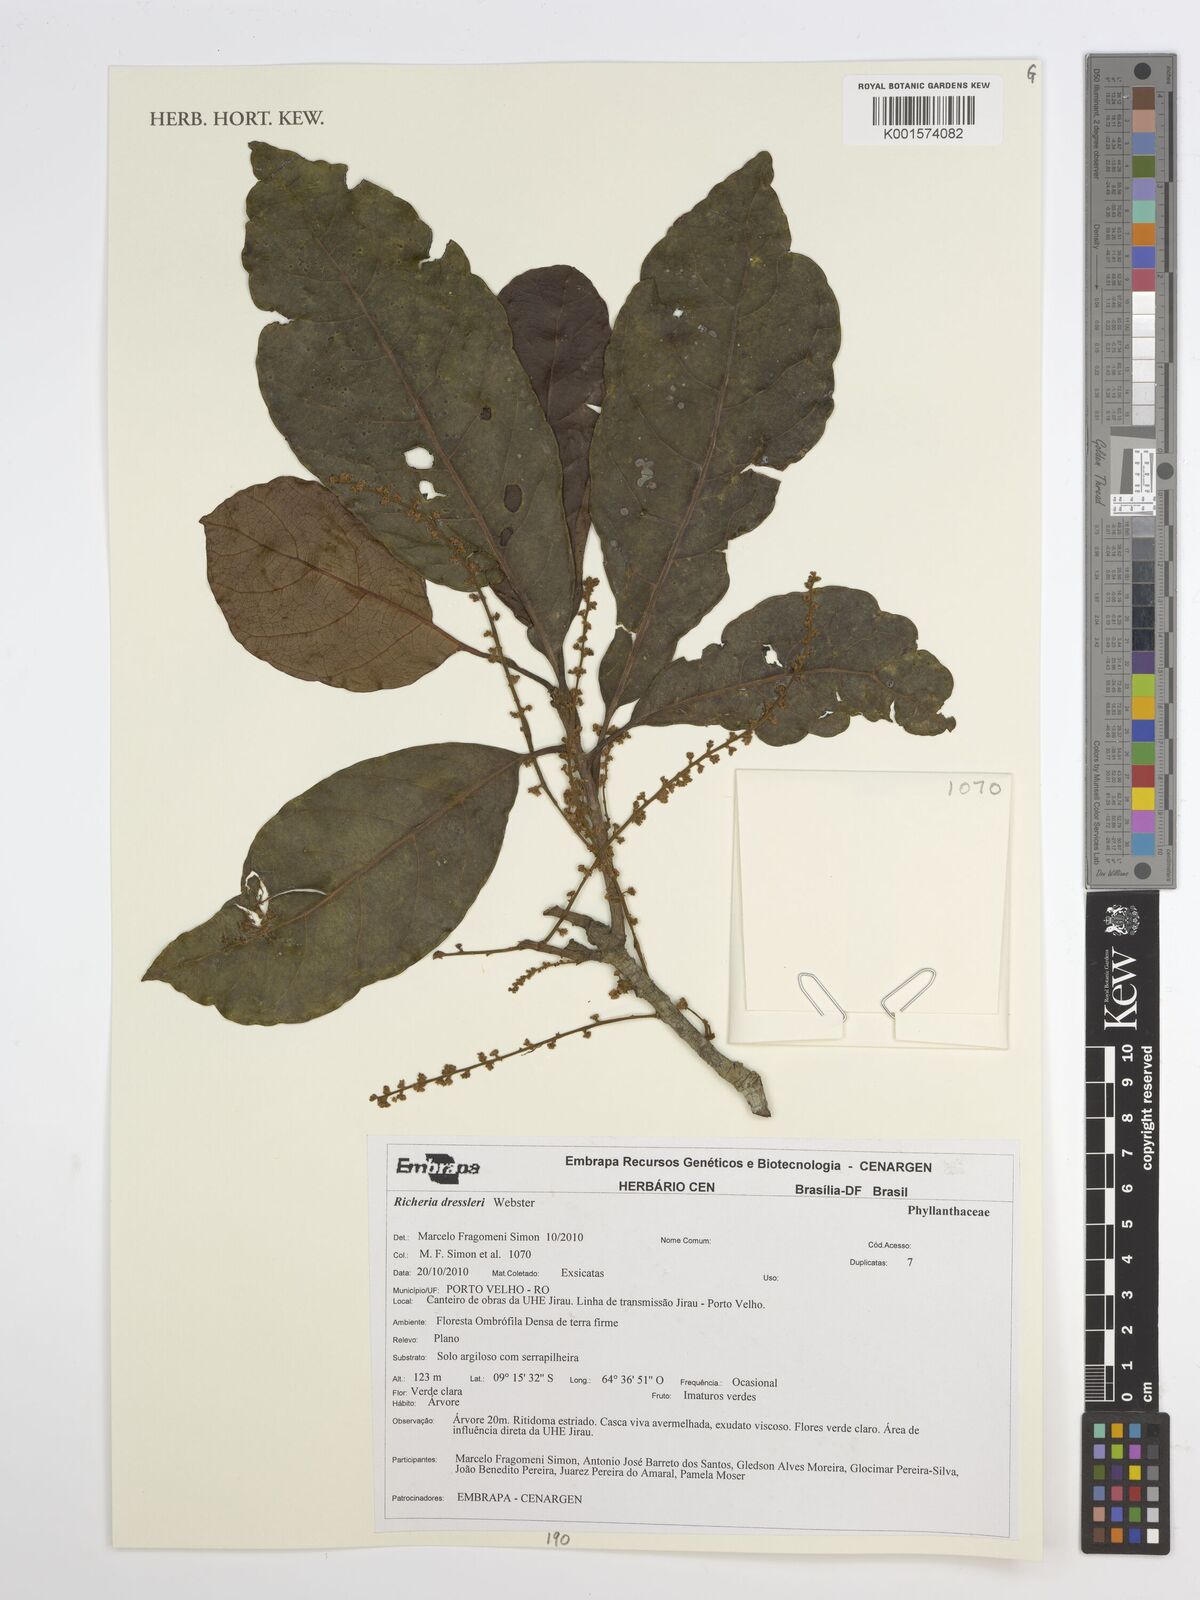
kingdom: Plantae
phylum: Tracheophyta
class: Magnoliopsida
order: Malpighiales
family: Phyllanthaceae
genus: Richeria
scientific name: Richeria dressleri
